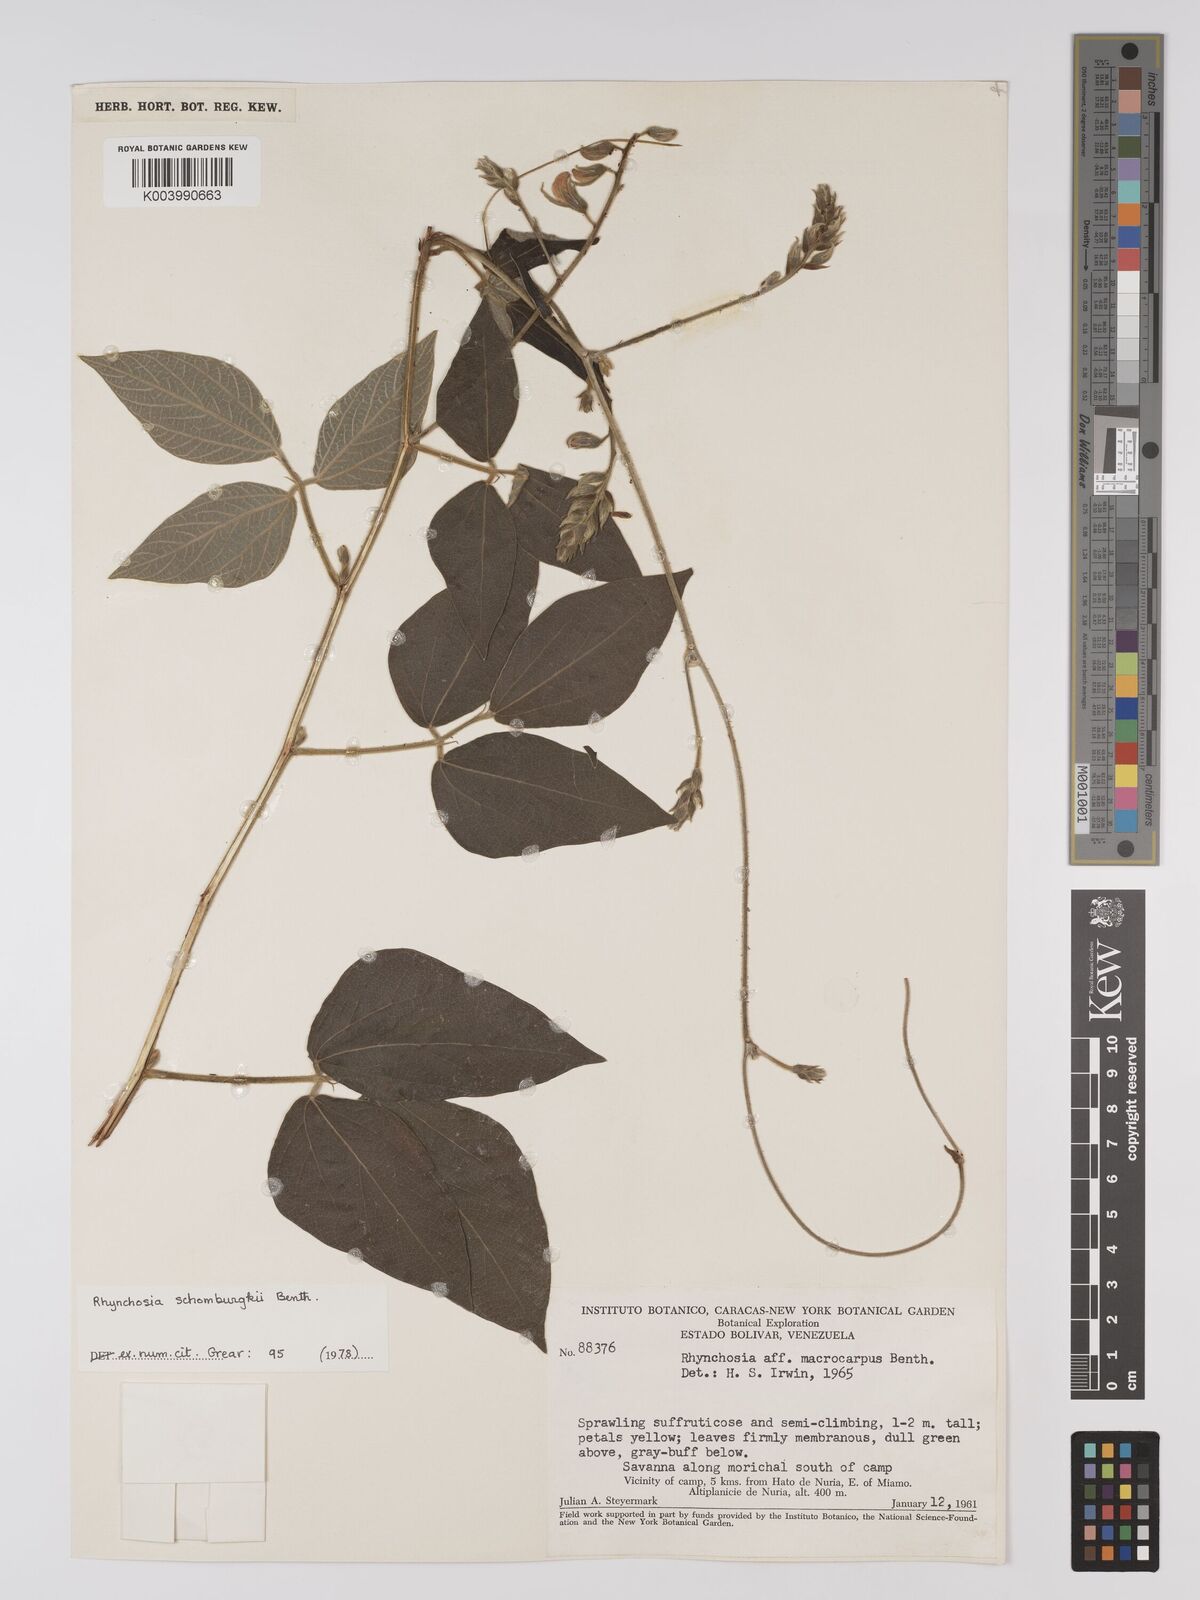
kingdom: Plantae
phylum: Tracheophyta
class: Magnoliopsida
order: Fabales
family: Fabaceae
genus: Rhynchosia
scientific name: Rhynchosia schomburgkii
